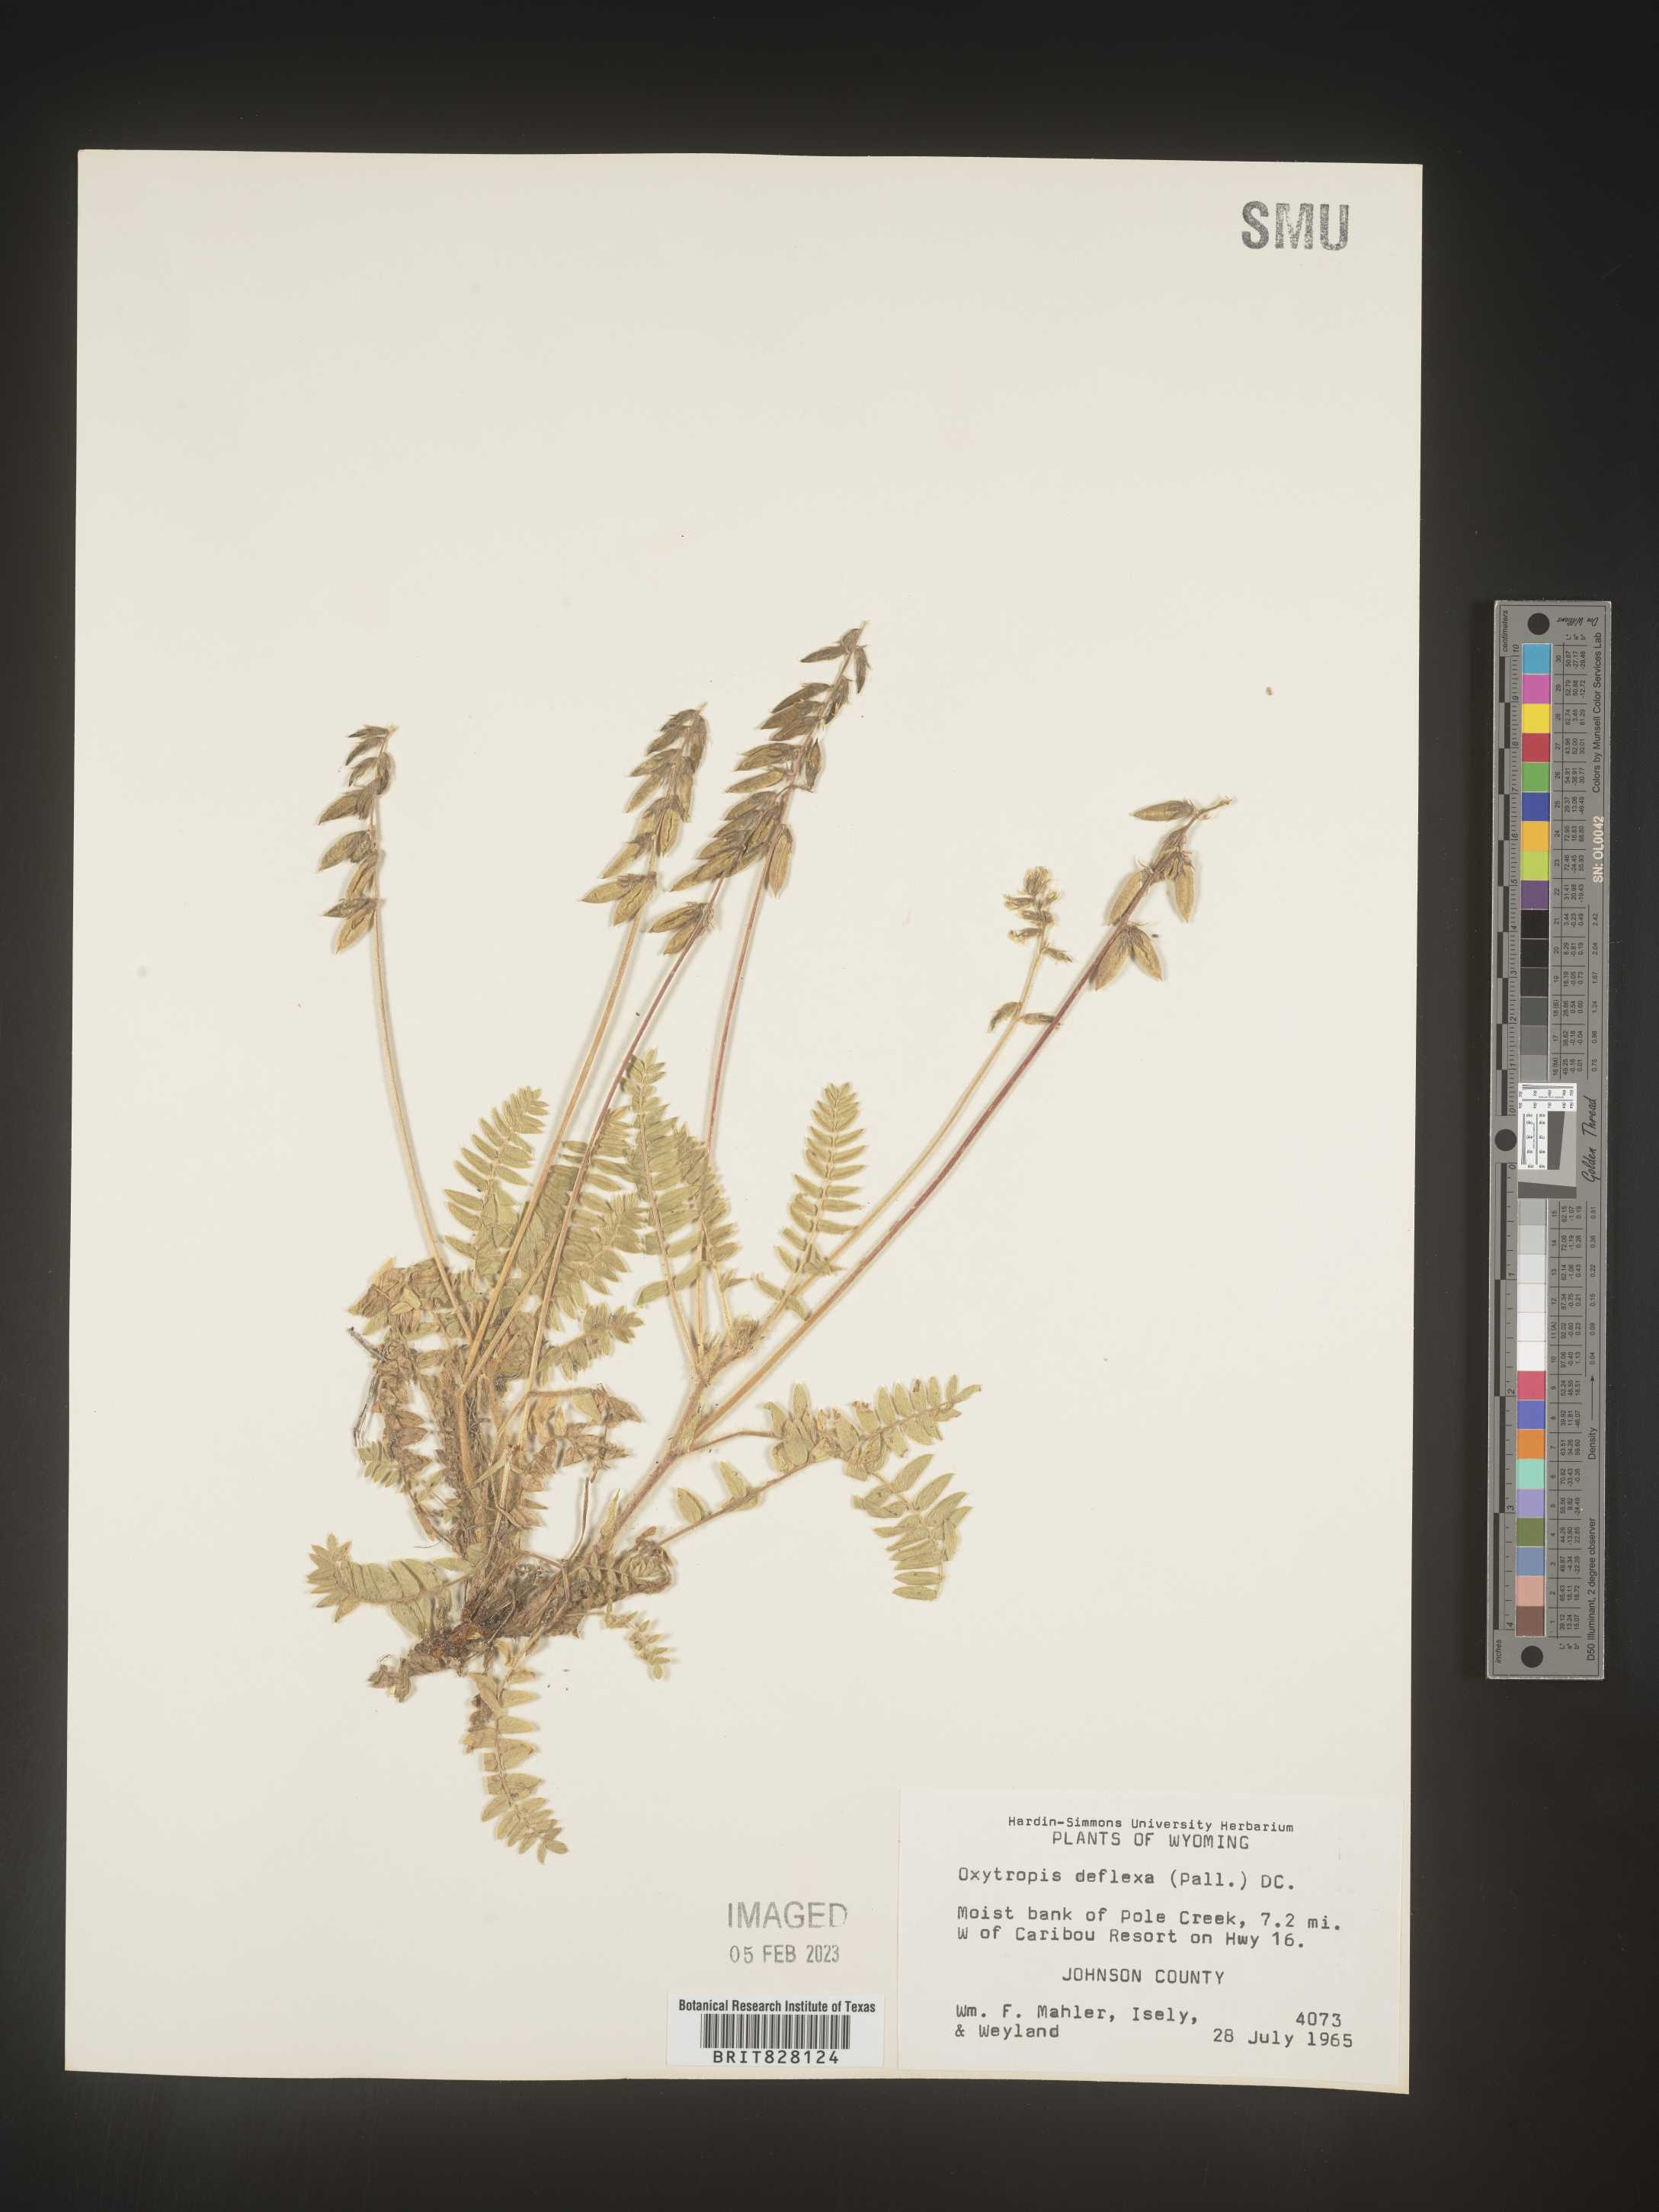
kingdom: Plantae
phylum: Tracheophyta
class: Magnoliopsida
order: Fabales
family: Fabaceae
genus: Oxytropis
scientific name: Oxytropis
